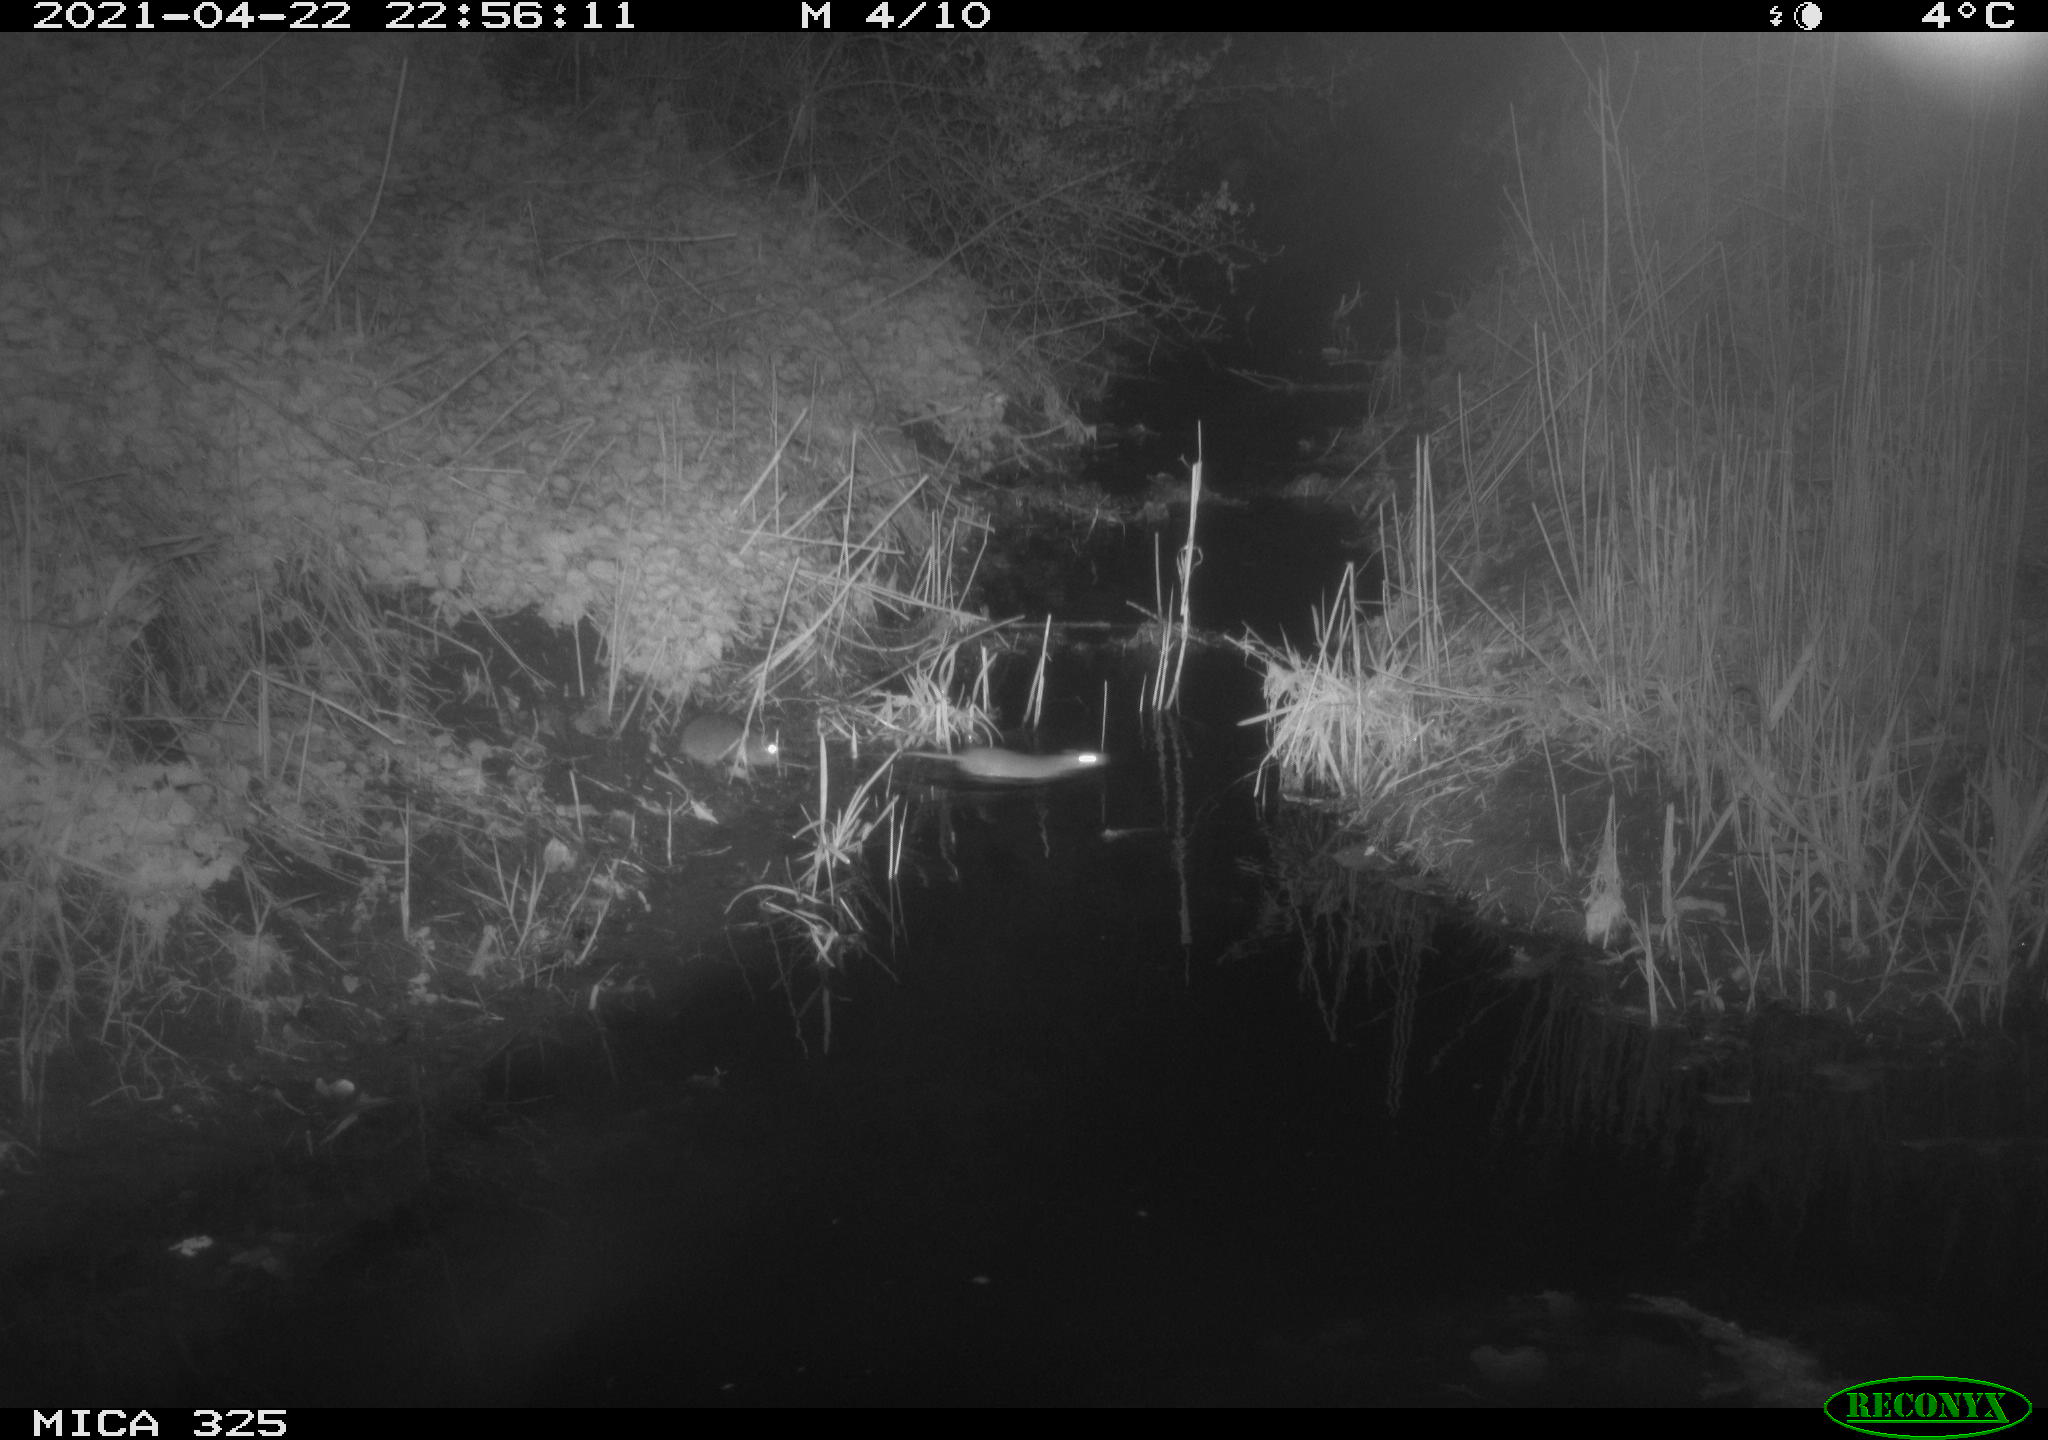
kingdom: Animalia
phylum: Chordata
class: Mammalia
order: Rodentia
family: Muridae
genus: Rattus
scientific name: Rattus norvegicus
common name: Brown rat
